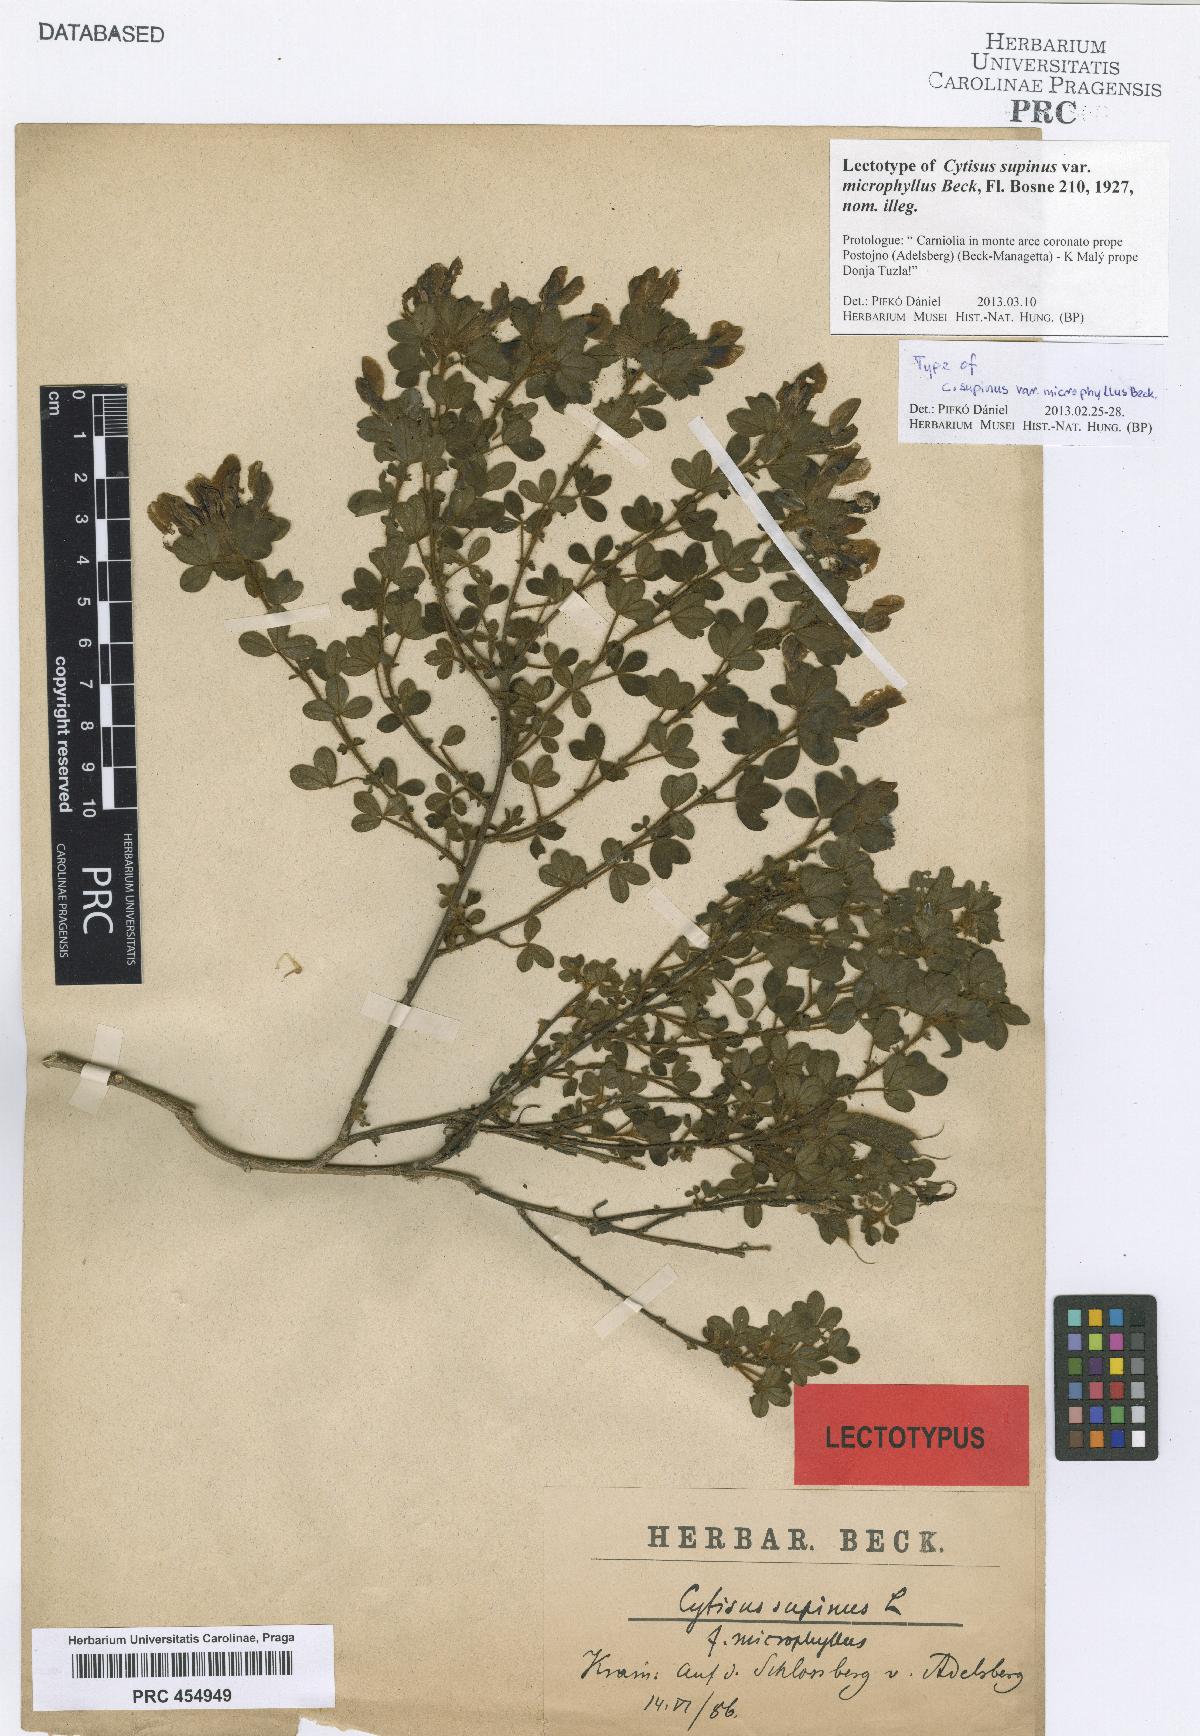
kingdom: Plantae
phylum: Tracheophyta
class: Magnoliopsida
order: Fabales
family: Fabaceae
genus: Chamaecytisus
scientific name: Chamaecytisus supinus
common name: Clustered broom
